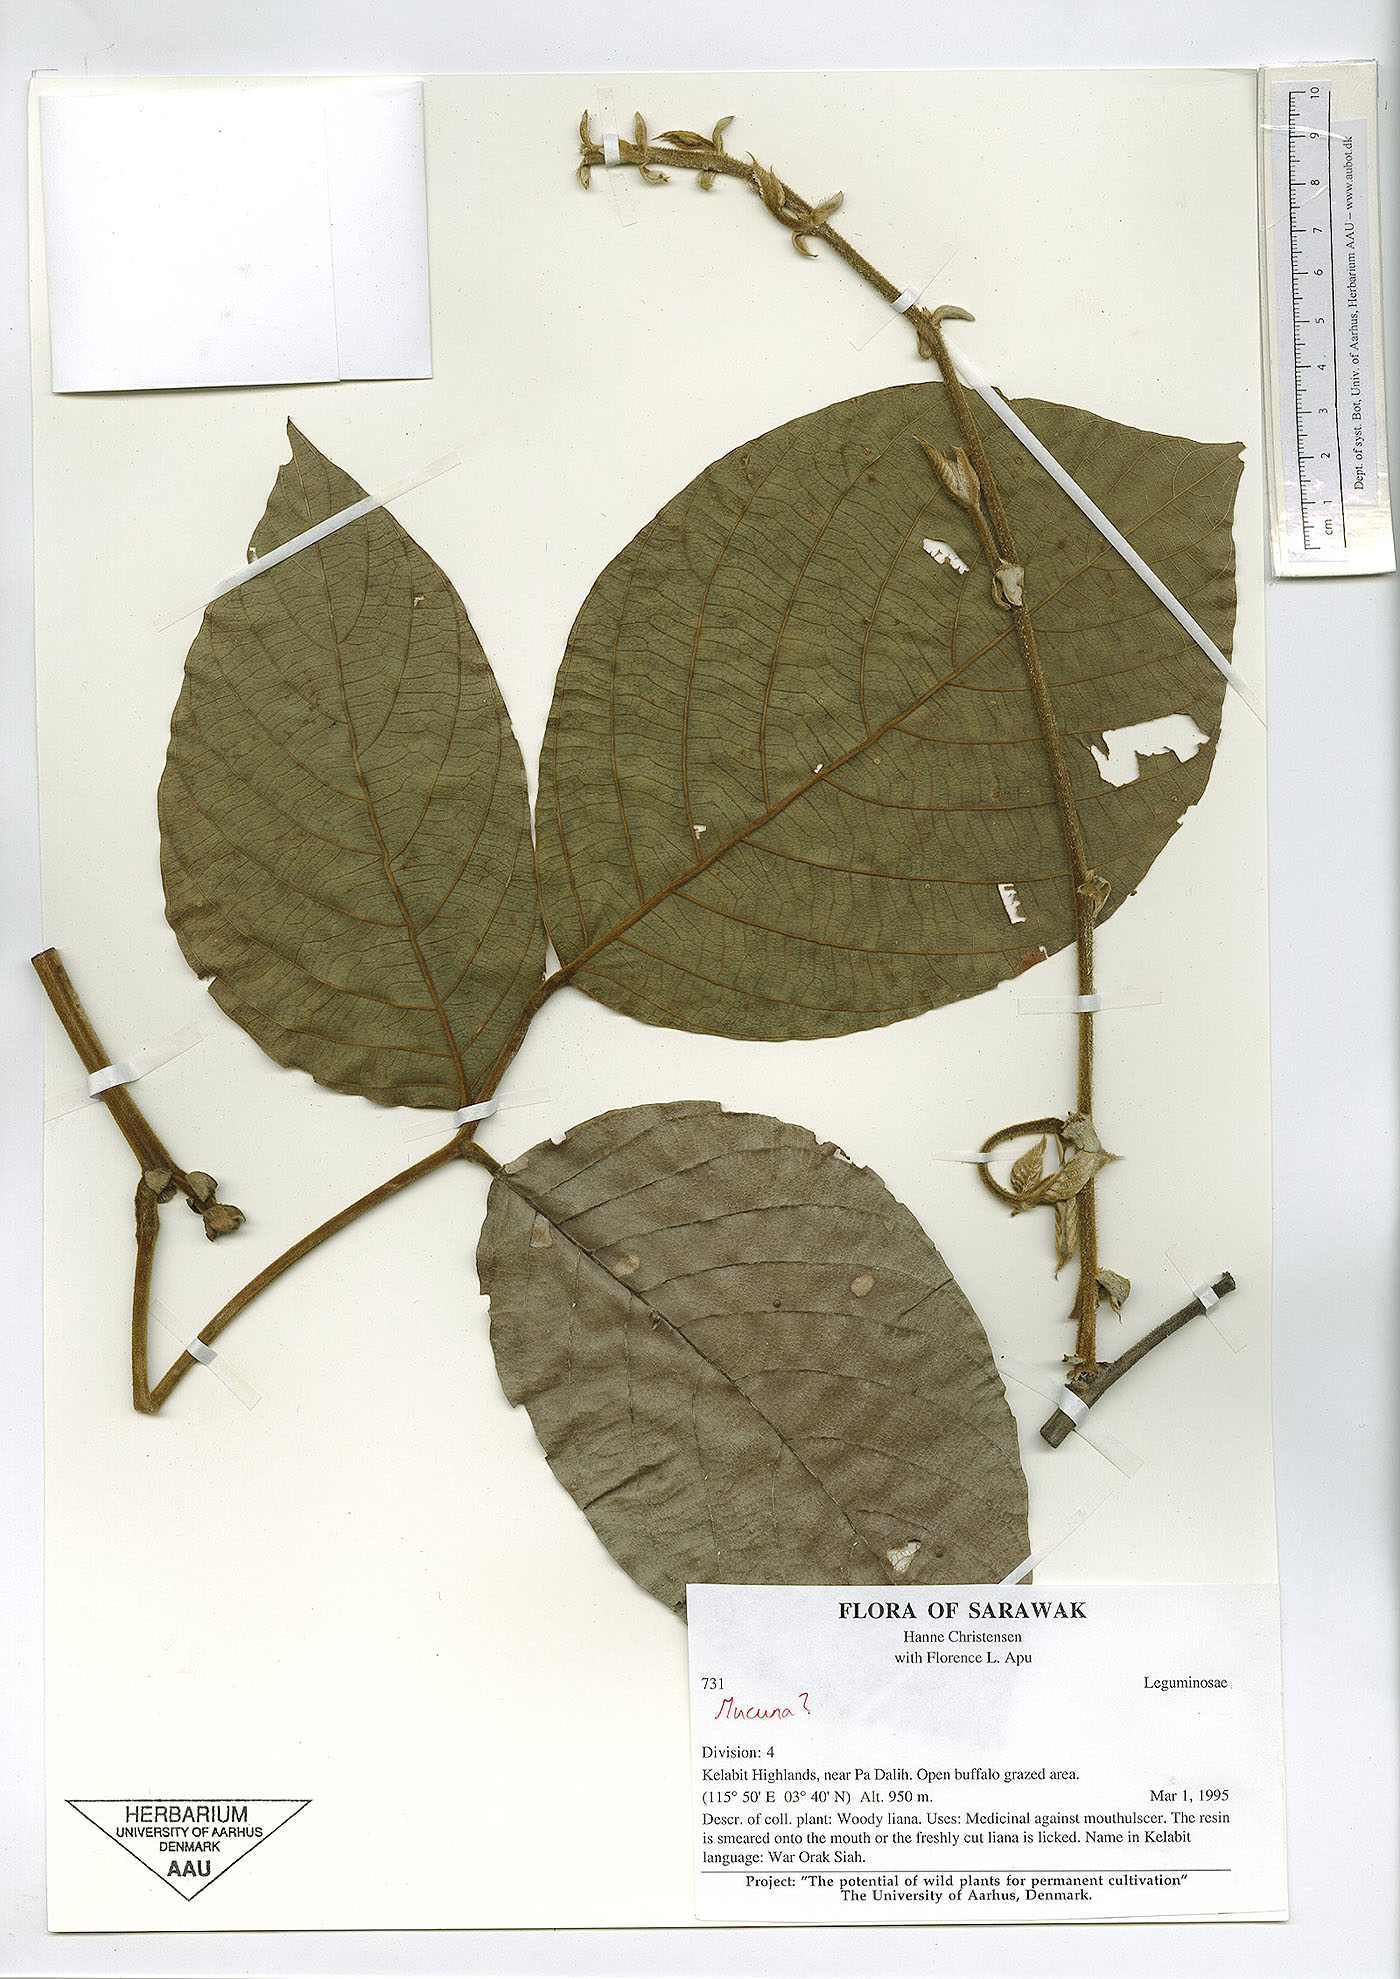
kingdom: Plantae
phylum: Tracheophyta
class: Magnoliopsida
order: Fabales
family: Fabaceae
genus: Spatholobus
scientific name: Spatholobus sanguineus
